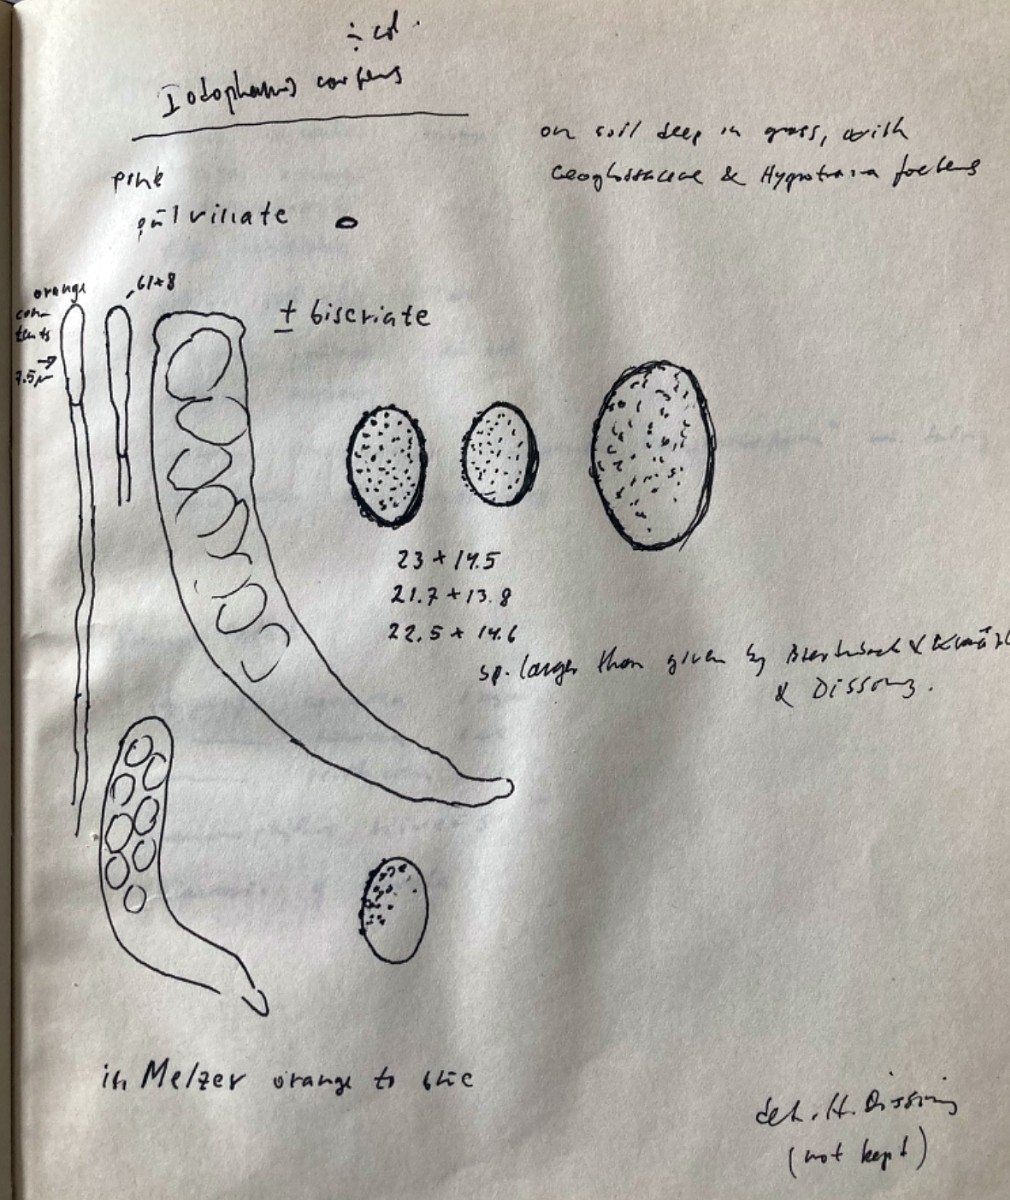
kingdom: Fungi
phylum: Ascomycota
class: Pezizomycetes
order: Pezizales
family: Pezizaceae
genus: Iodophanus
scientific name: Iodophanus carneus
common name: kødfarvet prikbæger
